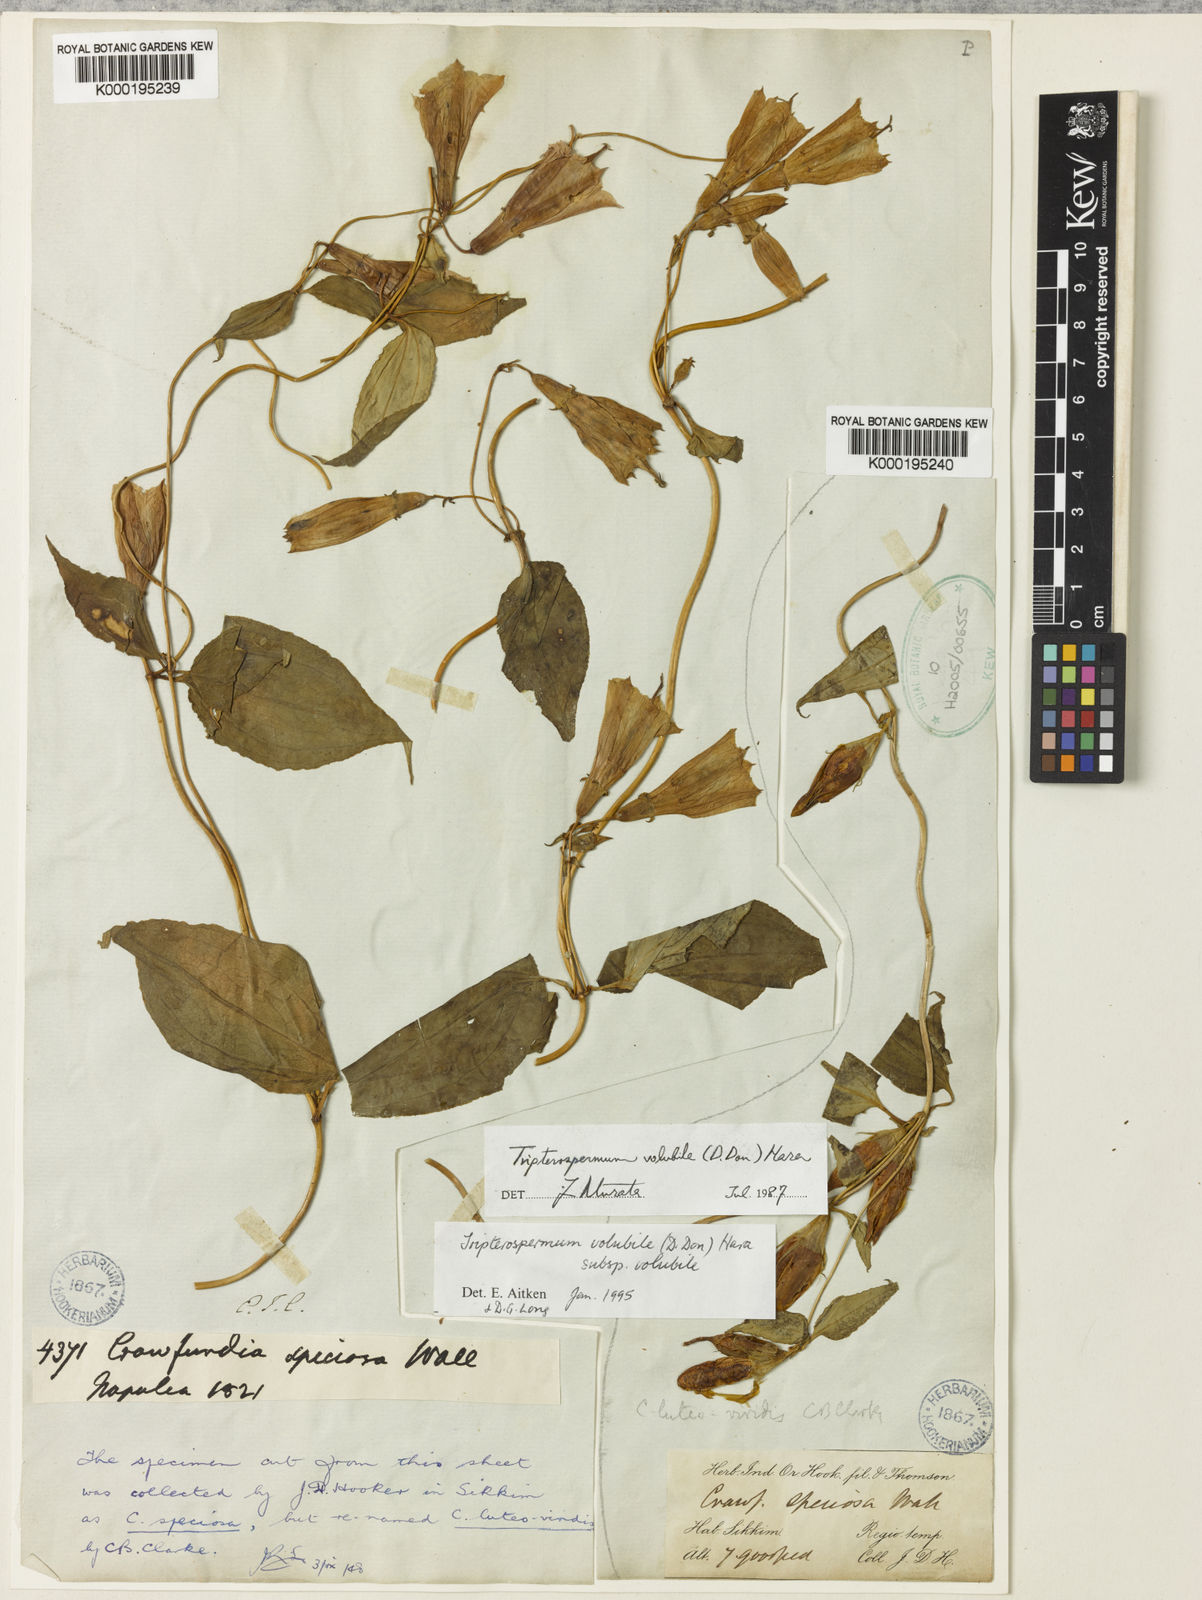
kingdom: Plantae
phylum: Tracheophyta
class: Magnoliopsida
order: Gentianales
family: Gentianaceae
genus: Crawfurdia
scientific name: Crawfurdia speciosa
